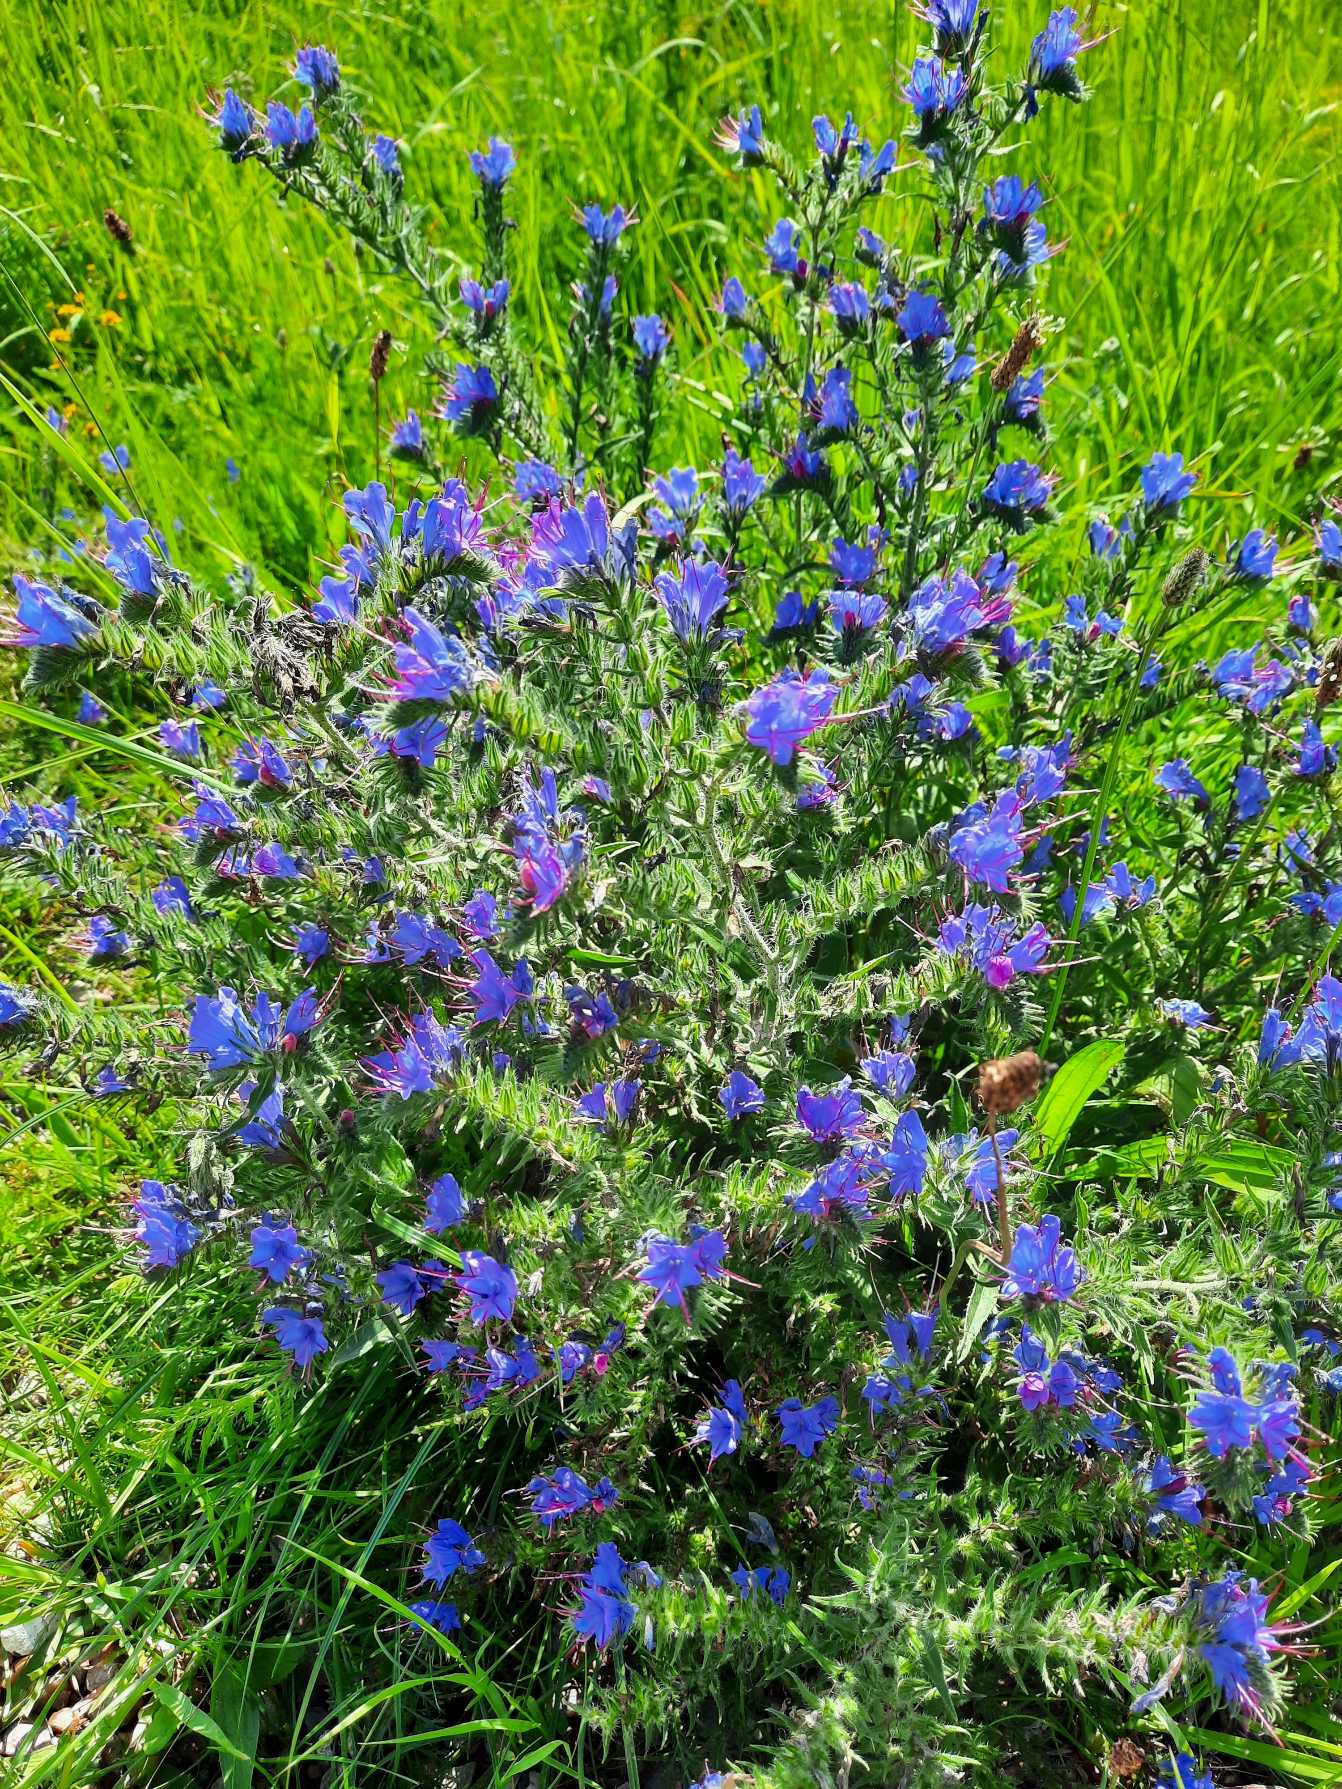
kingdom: Plantae
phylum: Tracheophyta
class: Magnoliopsida
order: Boraginales
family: Boraginaceae
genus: Echium
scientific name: Echium vulgare
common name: Slangehoved
